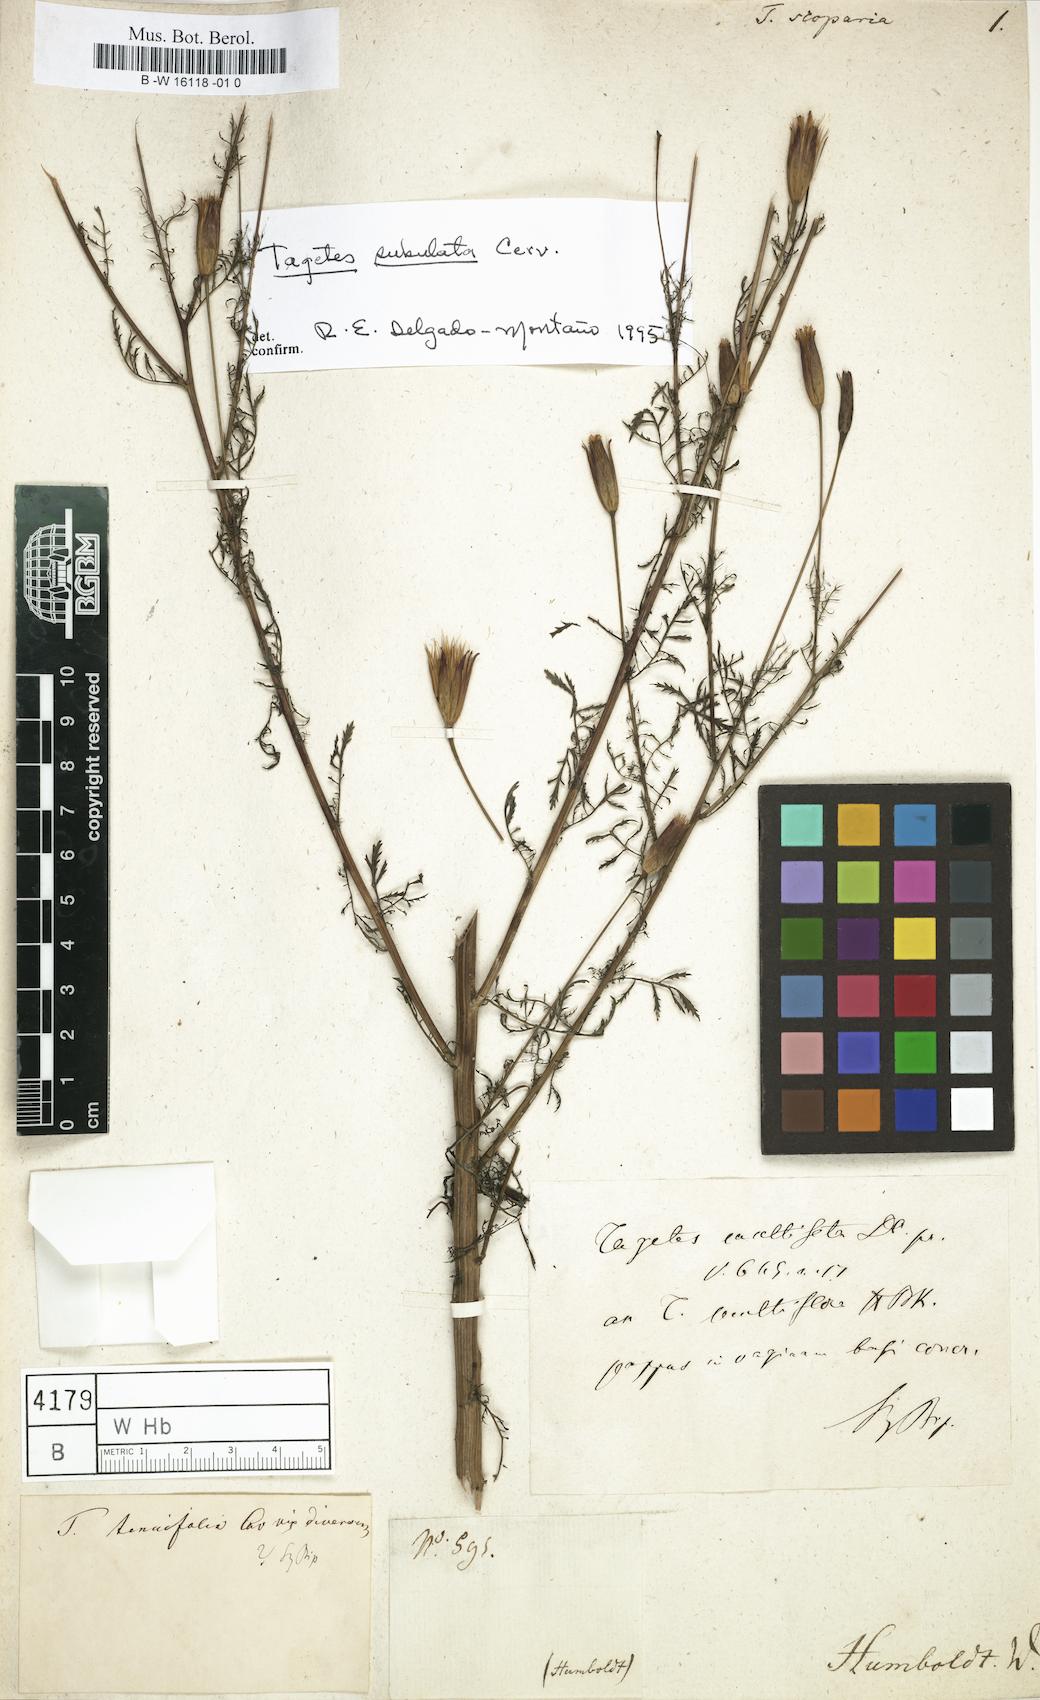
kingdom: Plantae
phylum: Tracheophyta
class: Magnoliopsida
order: Asterales
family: Asteraceae
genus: Tagetes
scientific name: Tagetes
